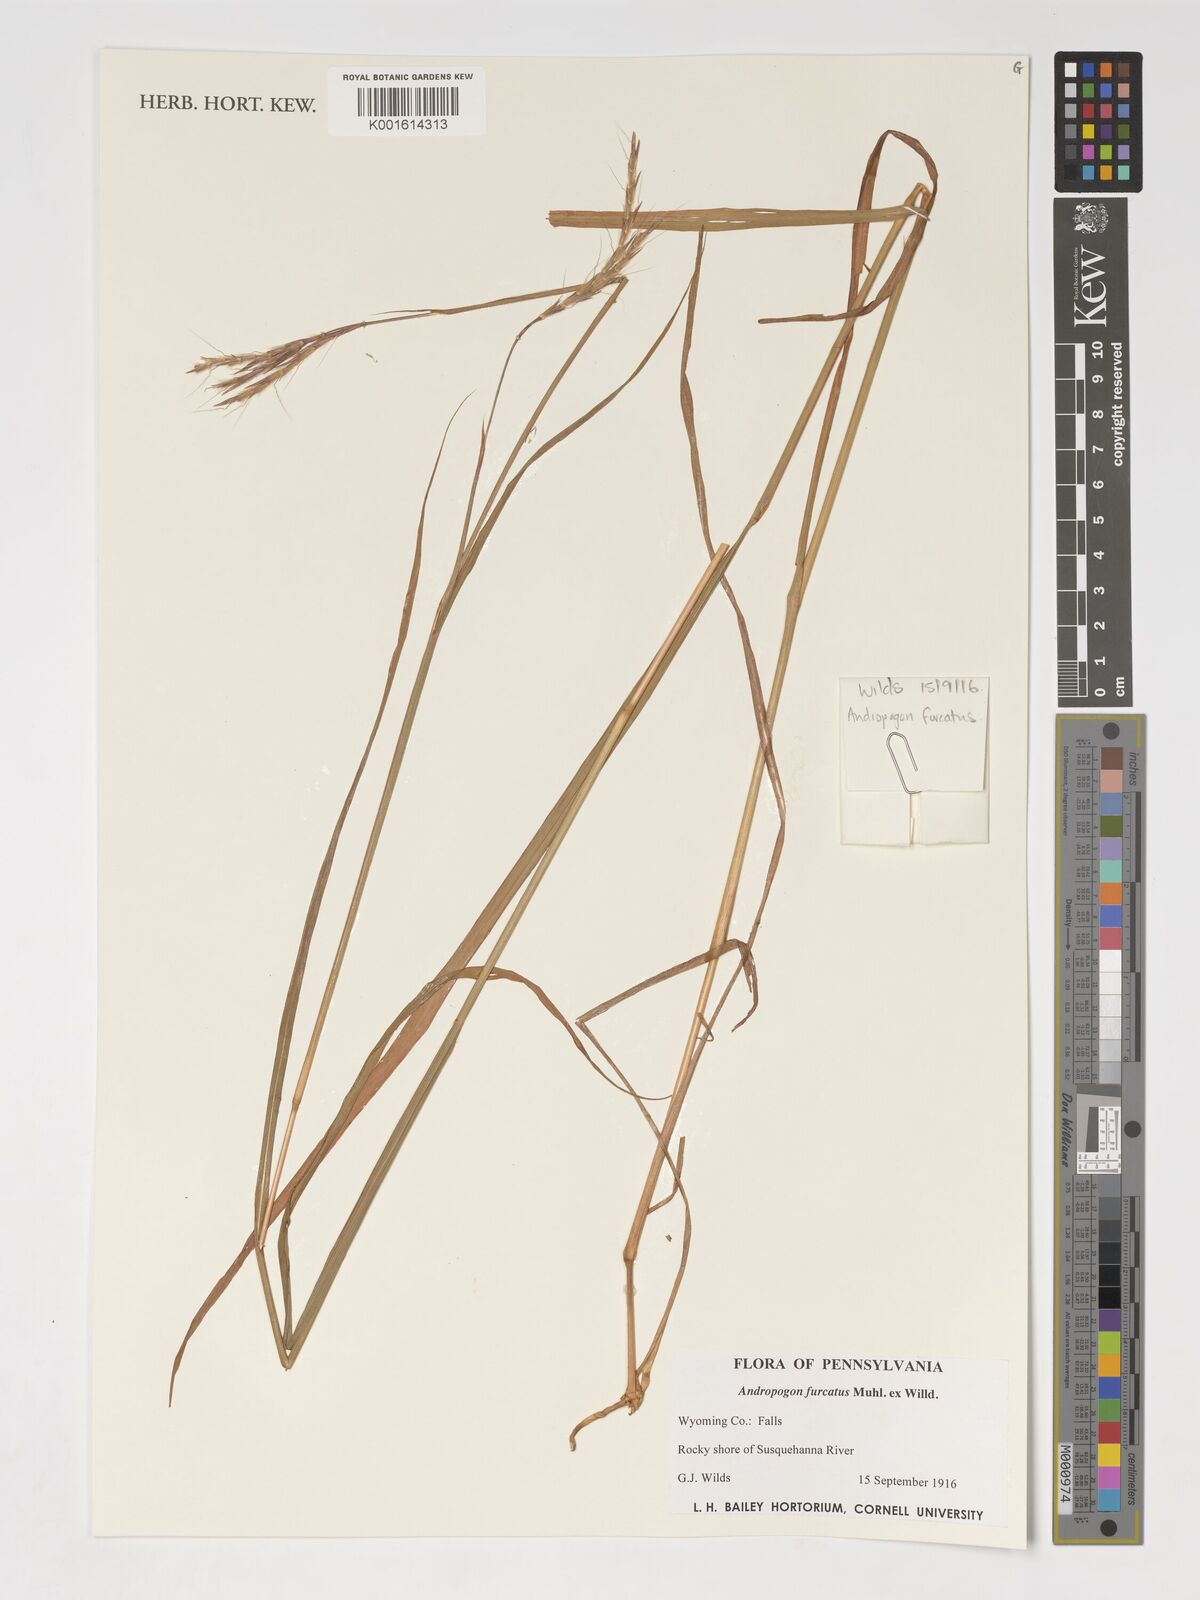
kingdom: Plantae
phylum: Tracheophyta
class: Liliopsida
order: Poales
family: Poaceae
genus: Andropogon
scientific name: Andropogon gerardi
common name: Big bluestem
